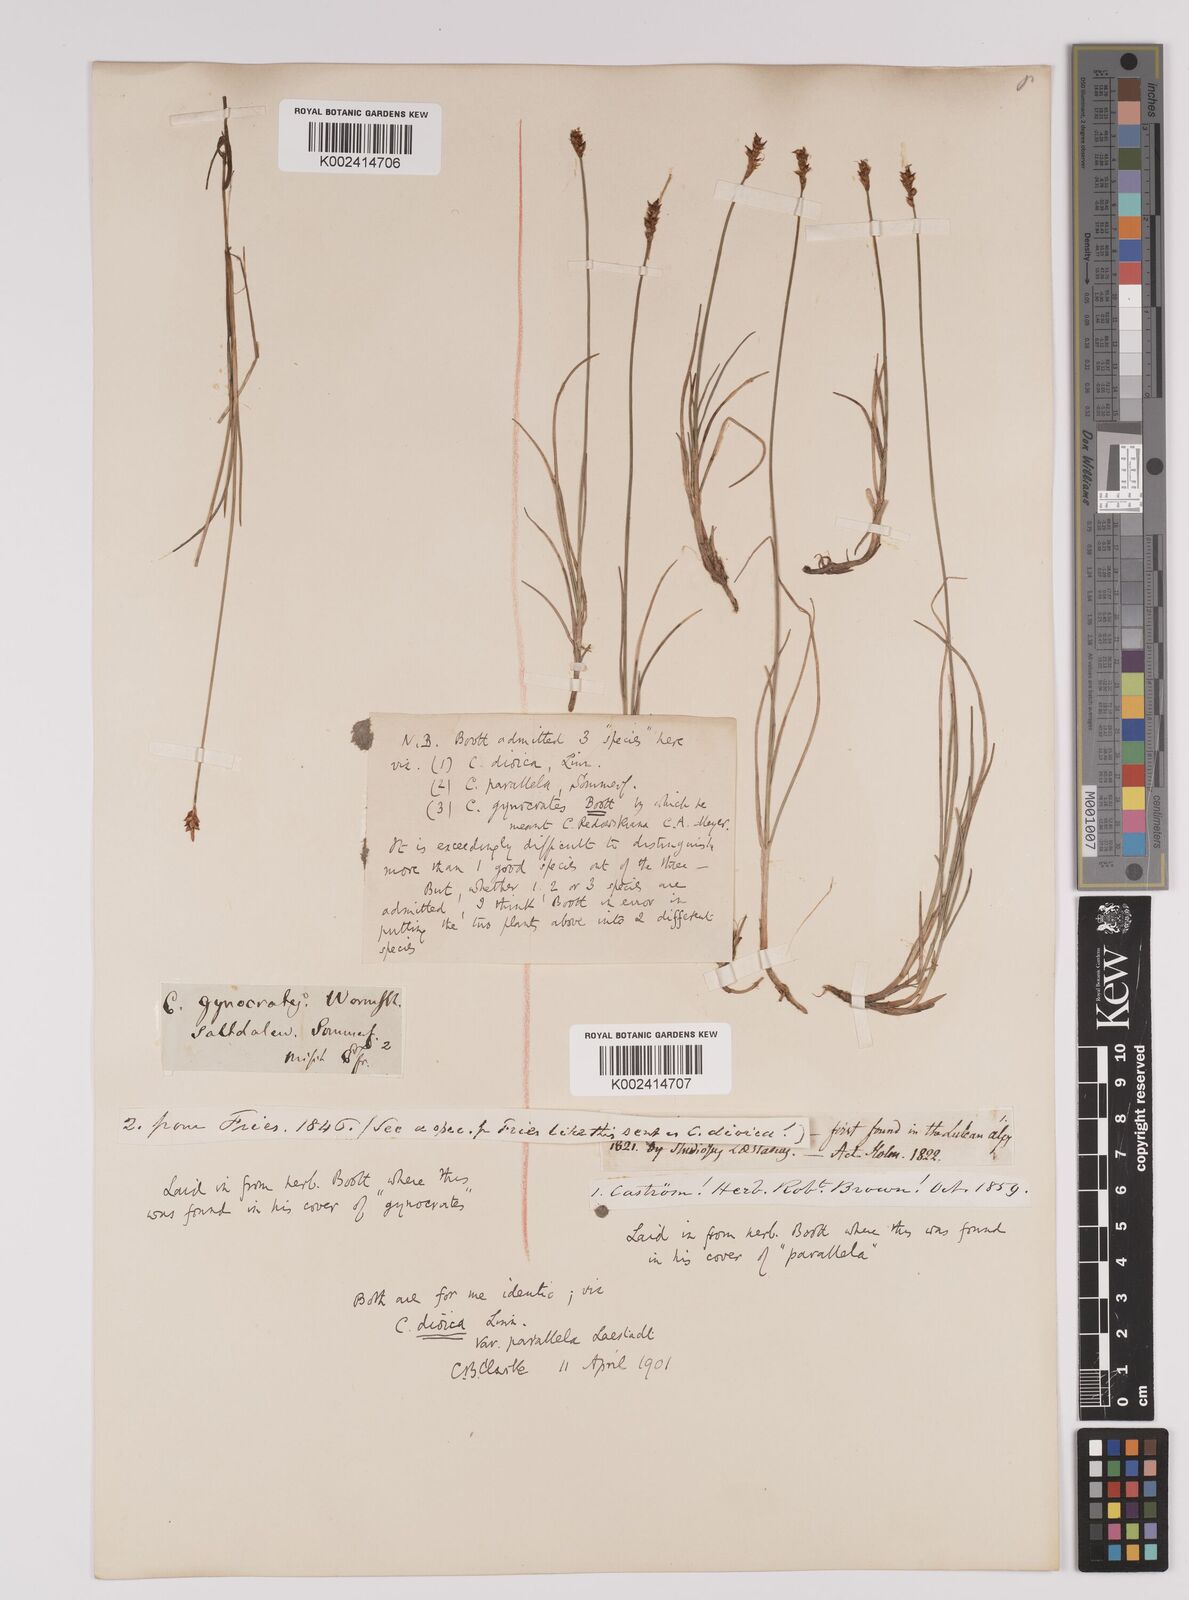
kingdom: Plantae
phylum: Tracheophyta
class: Liliopsida
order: Poales
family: Cyperaceae
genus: Carex
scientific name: Carex parallela
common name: Parallel sedge
